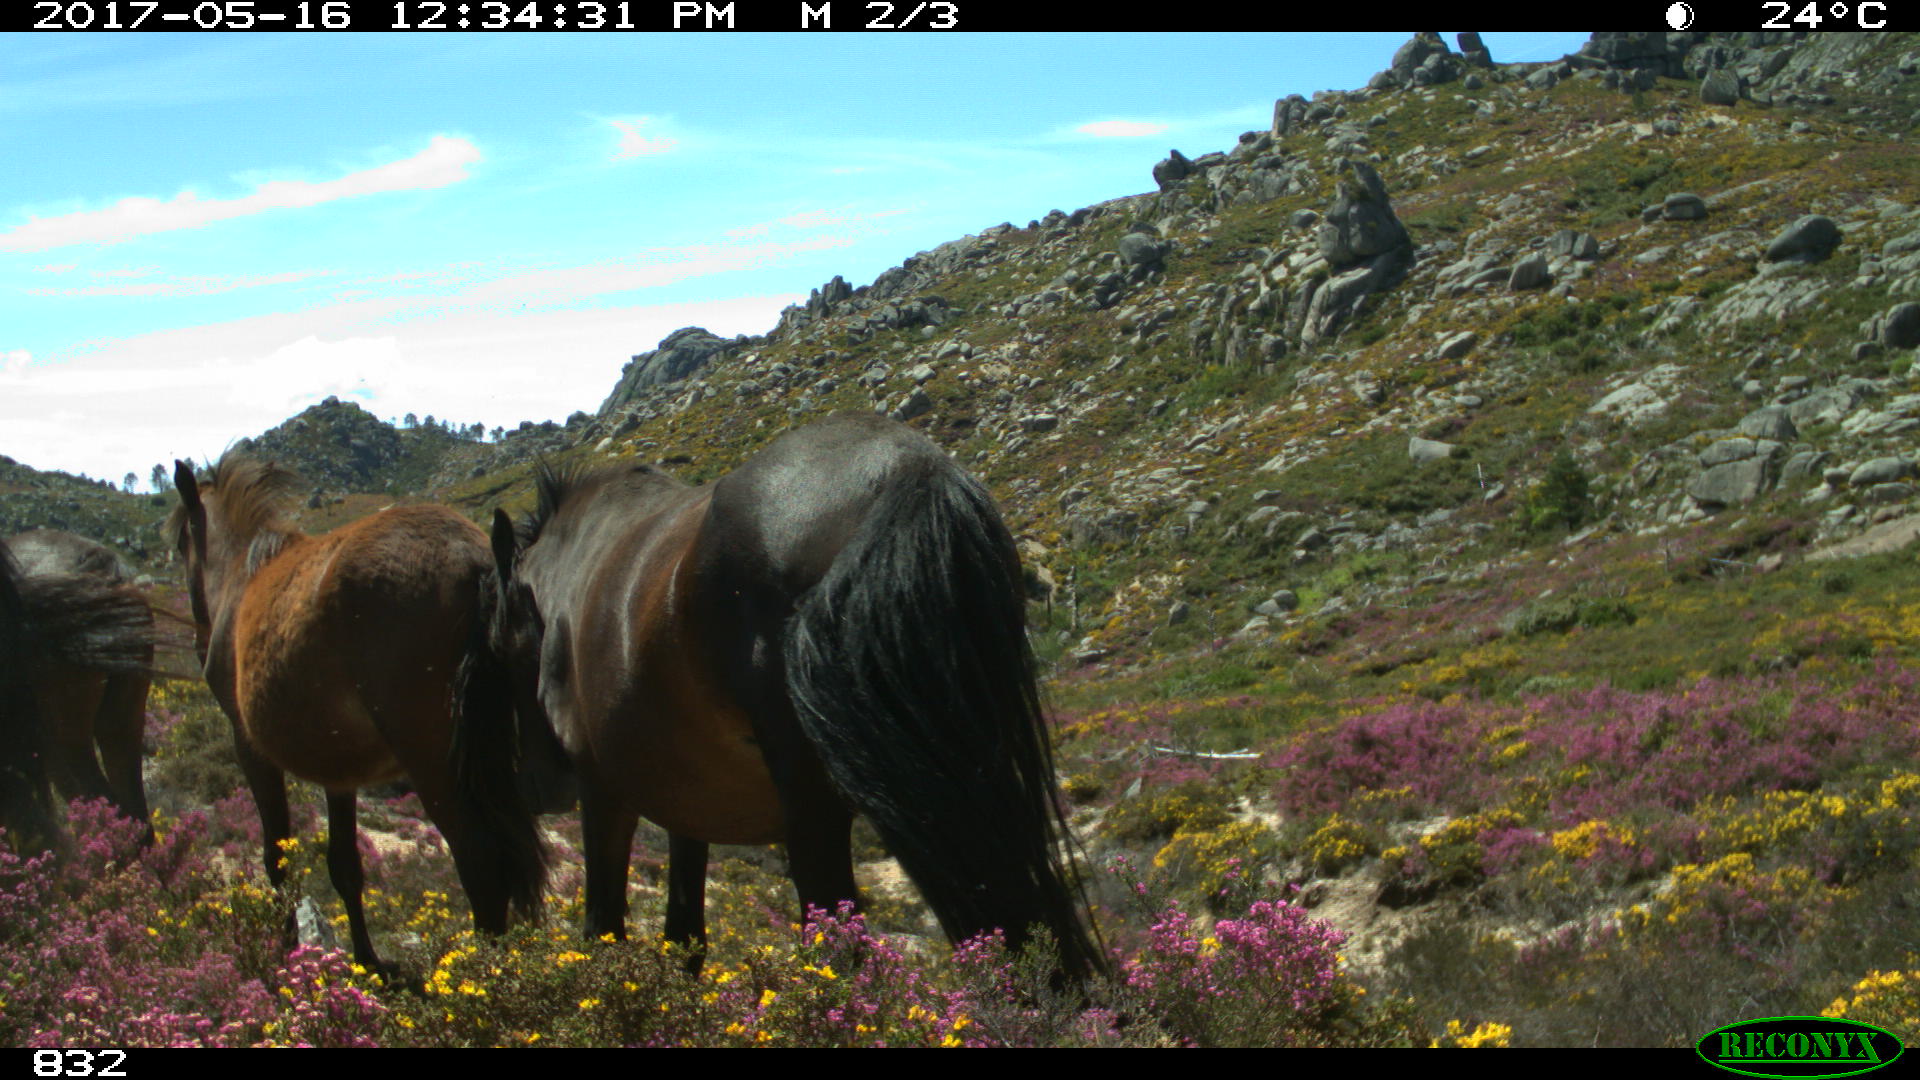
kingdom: Animalia
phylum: Chordata
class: Mammalia
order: Perissodactyla
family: Equidae
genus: Equus
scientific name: Equus caballus
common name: Horse
